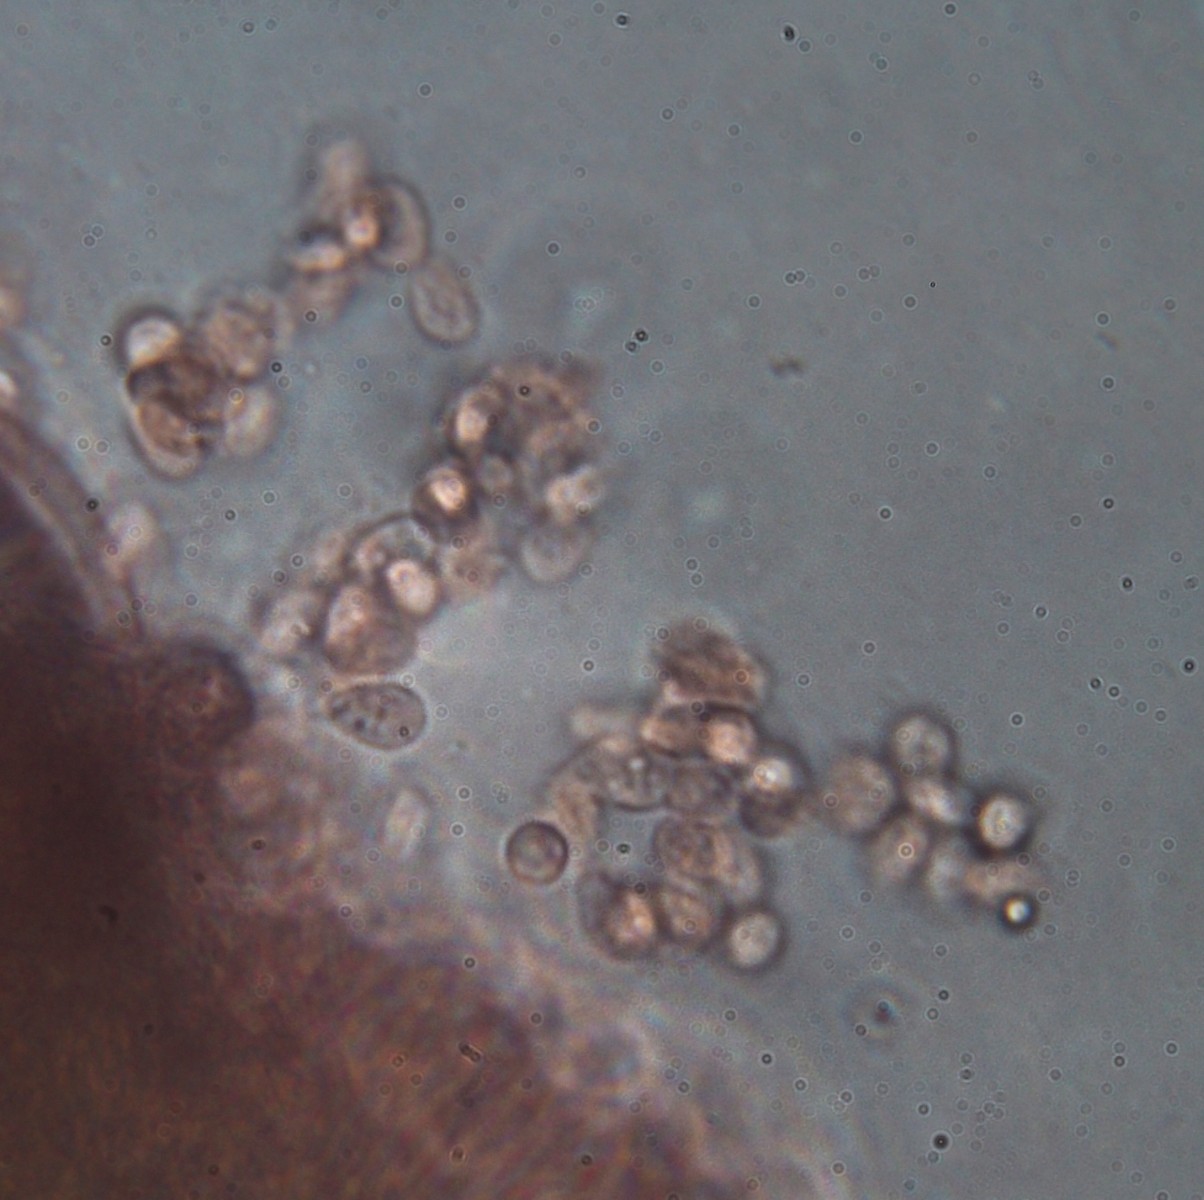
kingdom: Fungi
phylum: Basidiomycota
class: Agaricomycetes
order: Agaricales
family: Hygrophoraceae
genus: Arrhenia
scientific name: Arrhenia retiruga
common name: lille fontænehat
